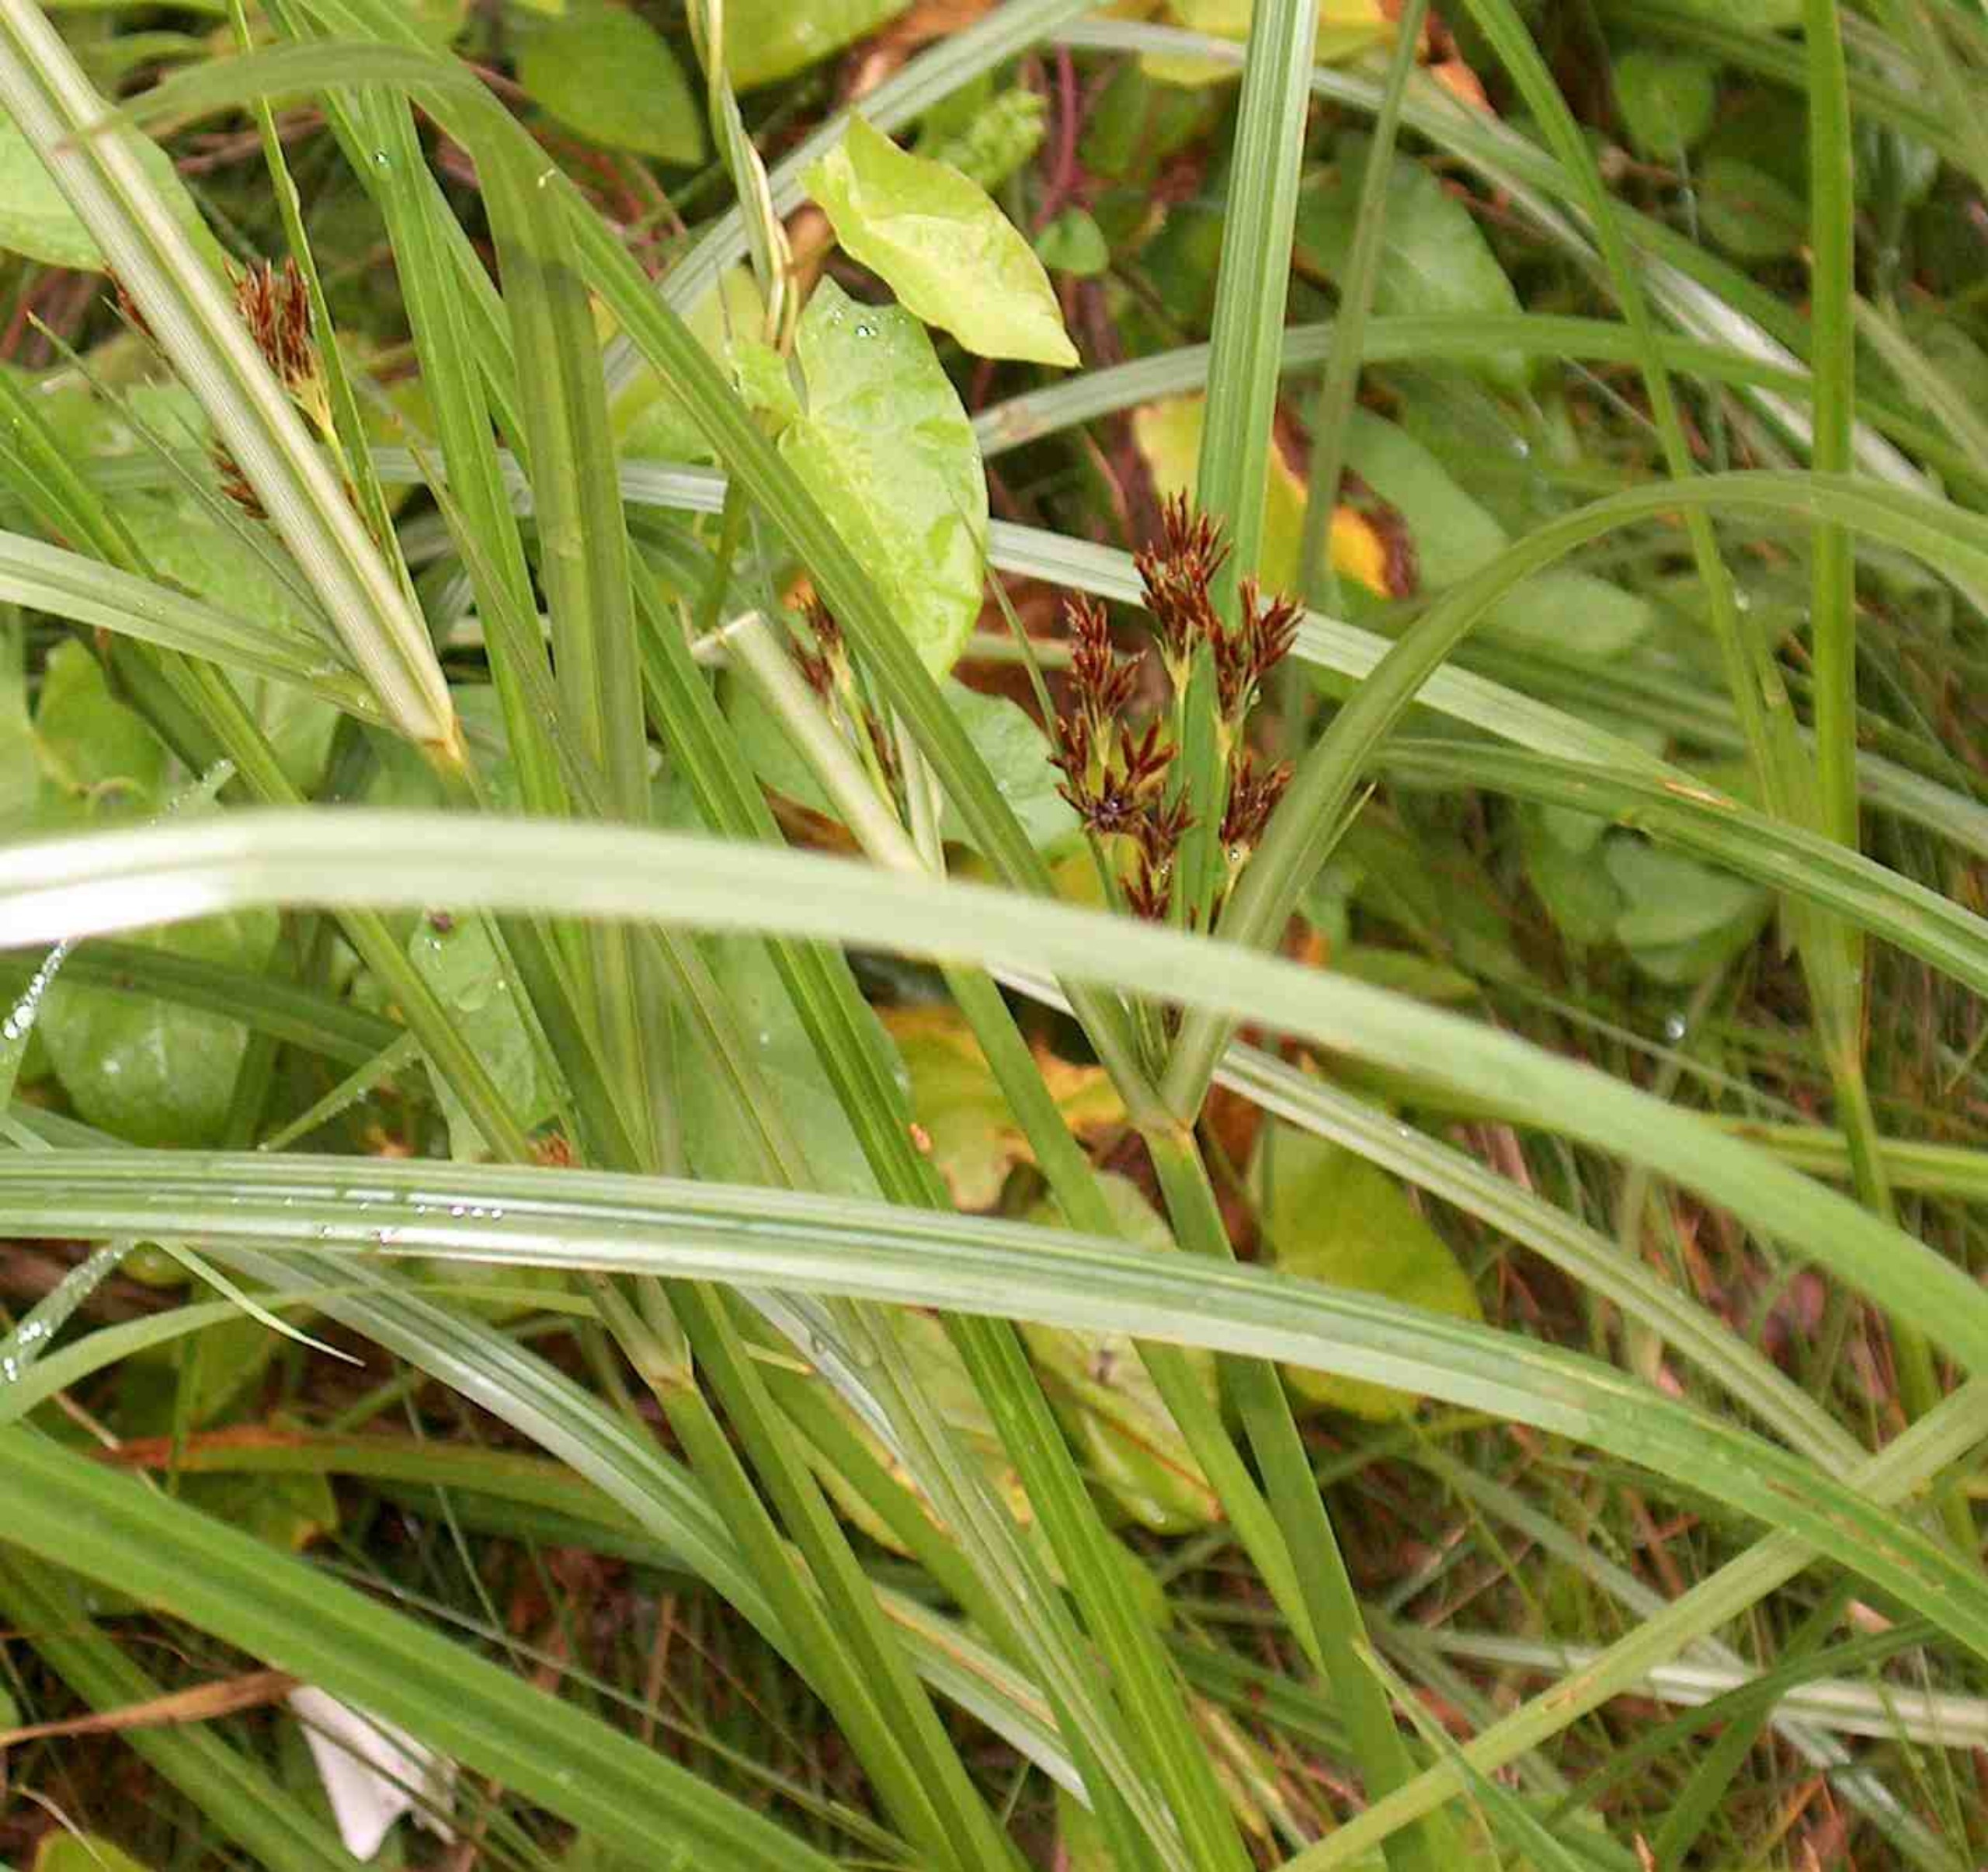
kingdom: Plantae
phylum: Tracheophyta
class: Liliopsida
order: Poales
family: Cyperaceae
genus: Cyperus
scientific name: Cyperus longus
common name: Smalbladet fladaks
